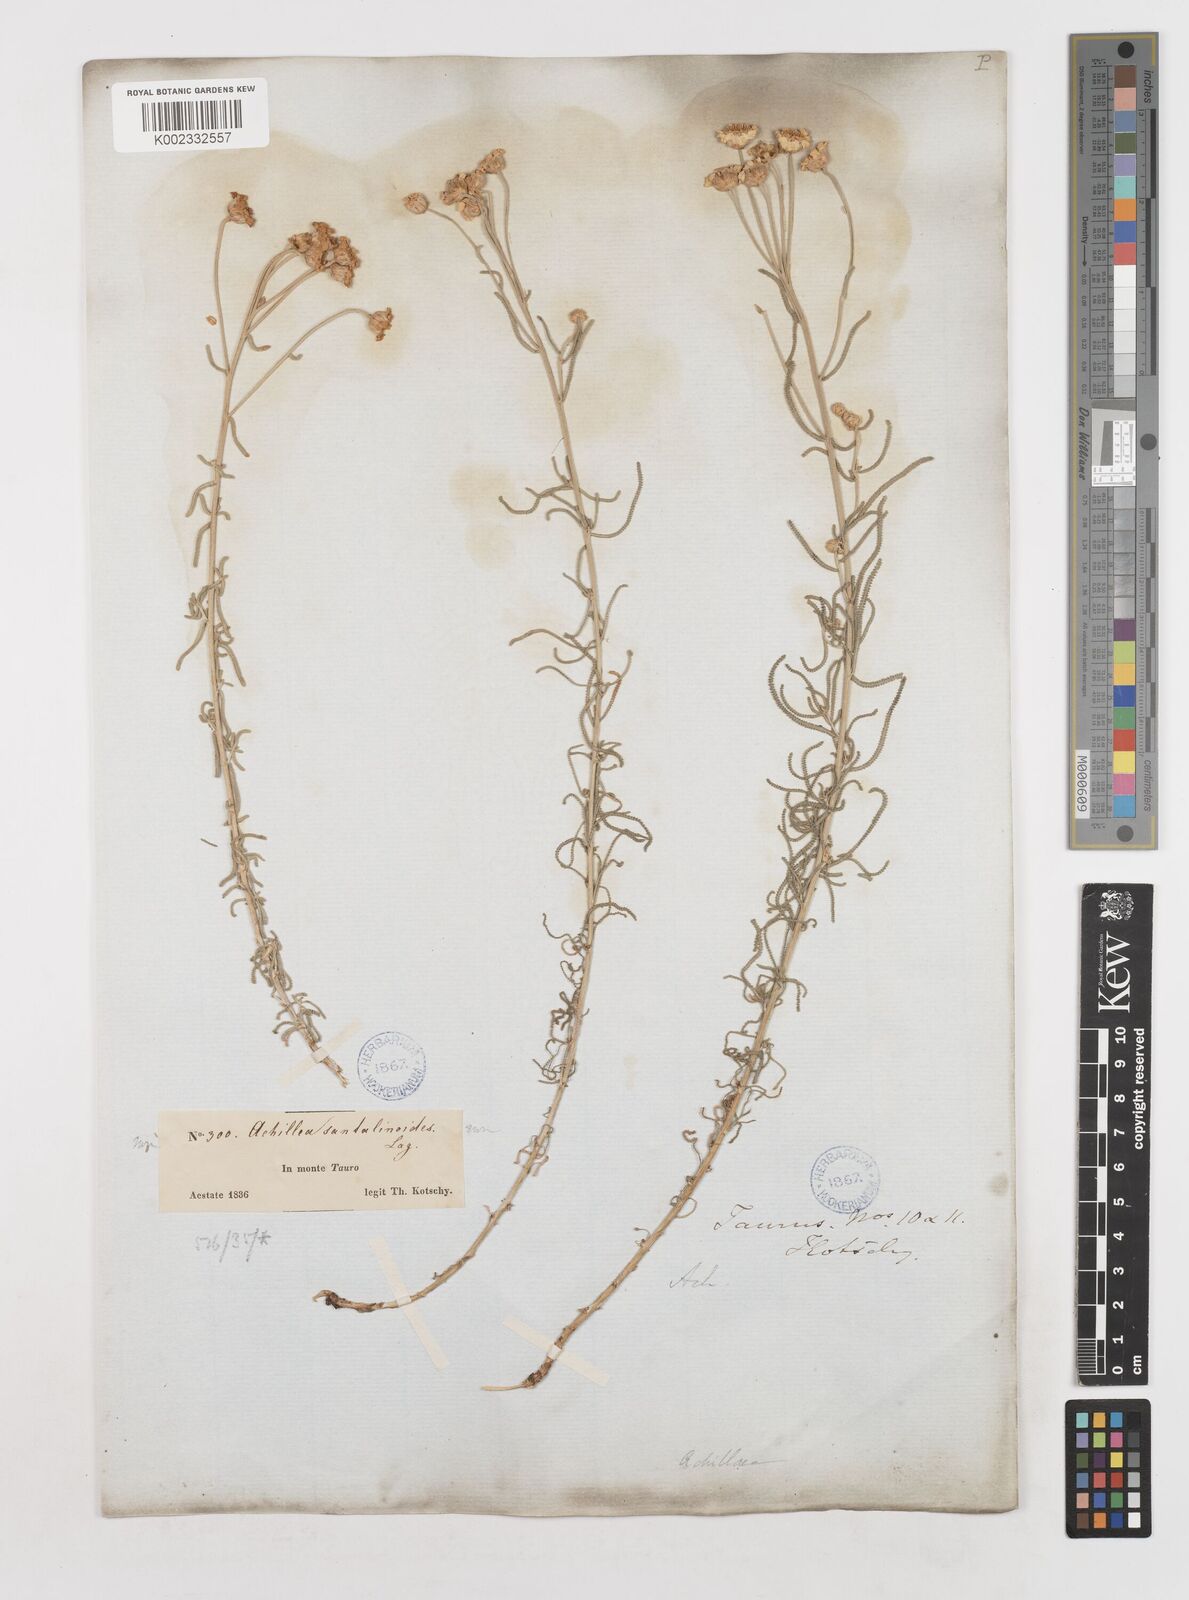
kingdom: Plantae
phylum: Tracheophyta
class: Magnoliopsida
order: Asterales
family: Asteraceae
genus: Achillea
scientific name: Achillea spinulifolia
